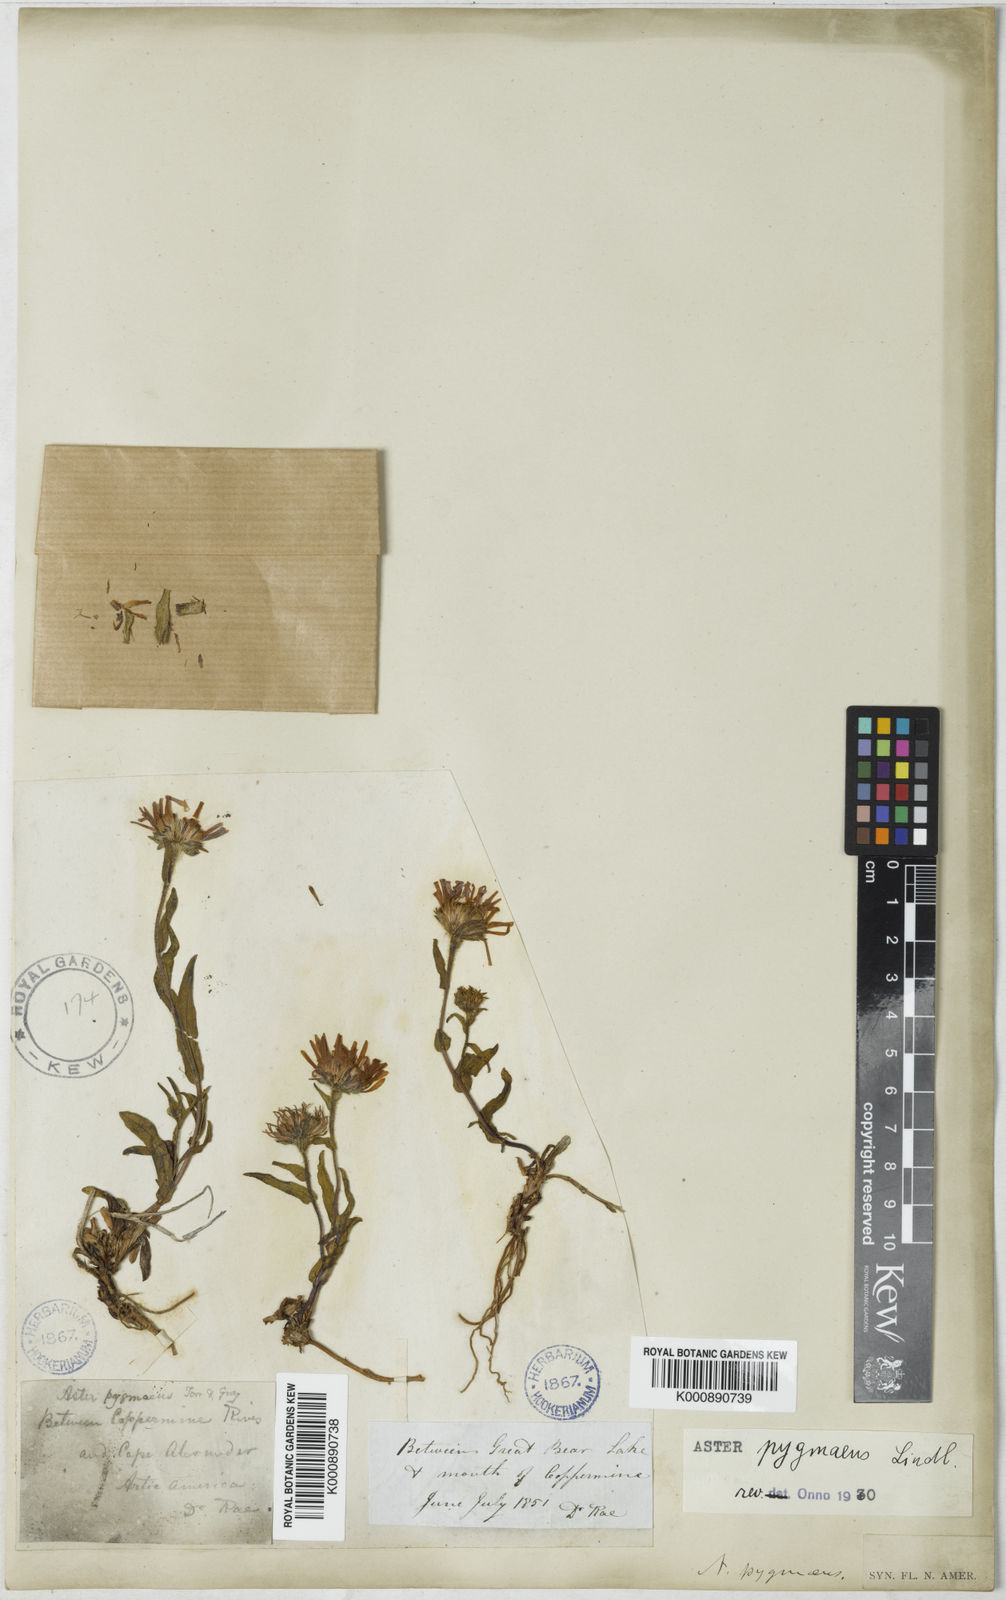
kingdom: Plantae
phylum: Tracheophyta
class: Magnoliopsida
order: Asterales
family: Asteraceae
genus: Symphyotrichum
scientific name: Symphyotrichum pygmaeum
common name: Pygmy aster
